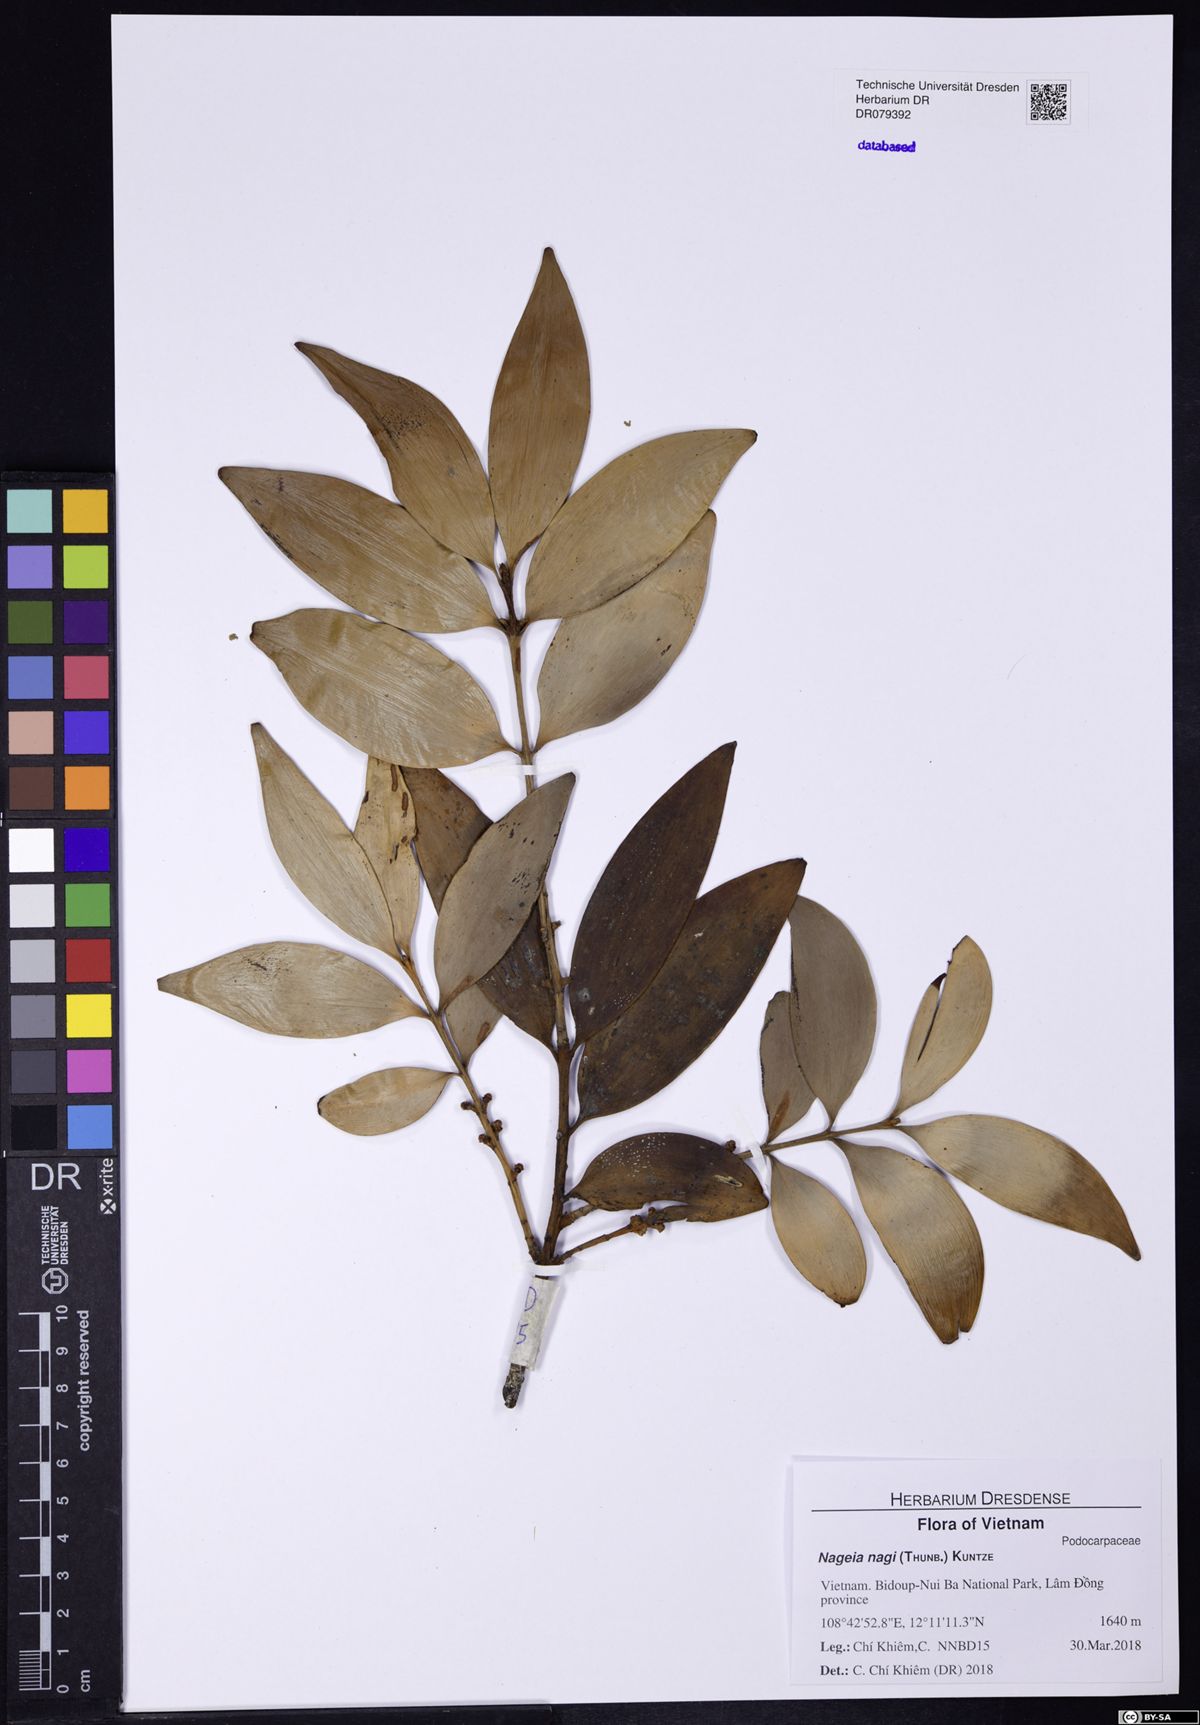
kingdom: Plantae
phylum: Tracheophyta
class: Pinopsida
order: Pinales
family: Podocarpaceae
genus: Nageia
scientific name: Nageia nagi
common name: Kaphal
